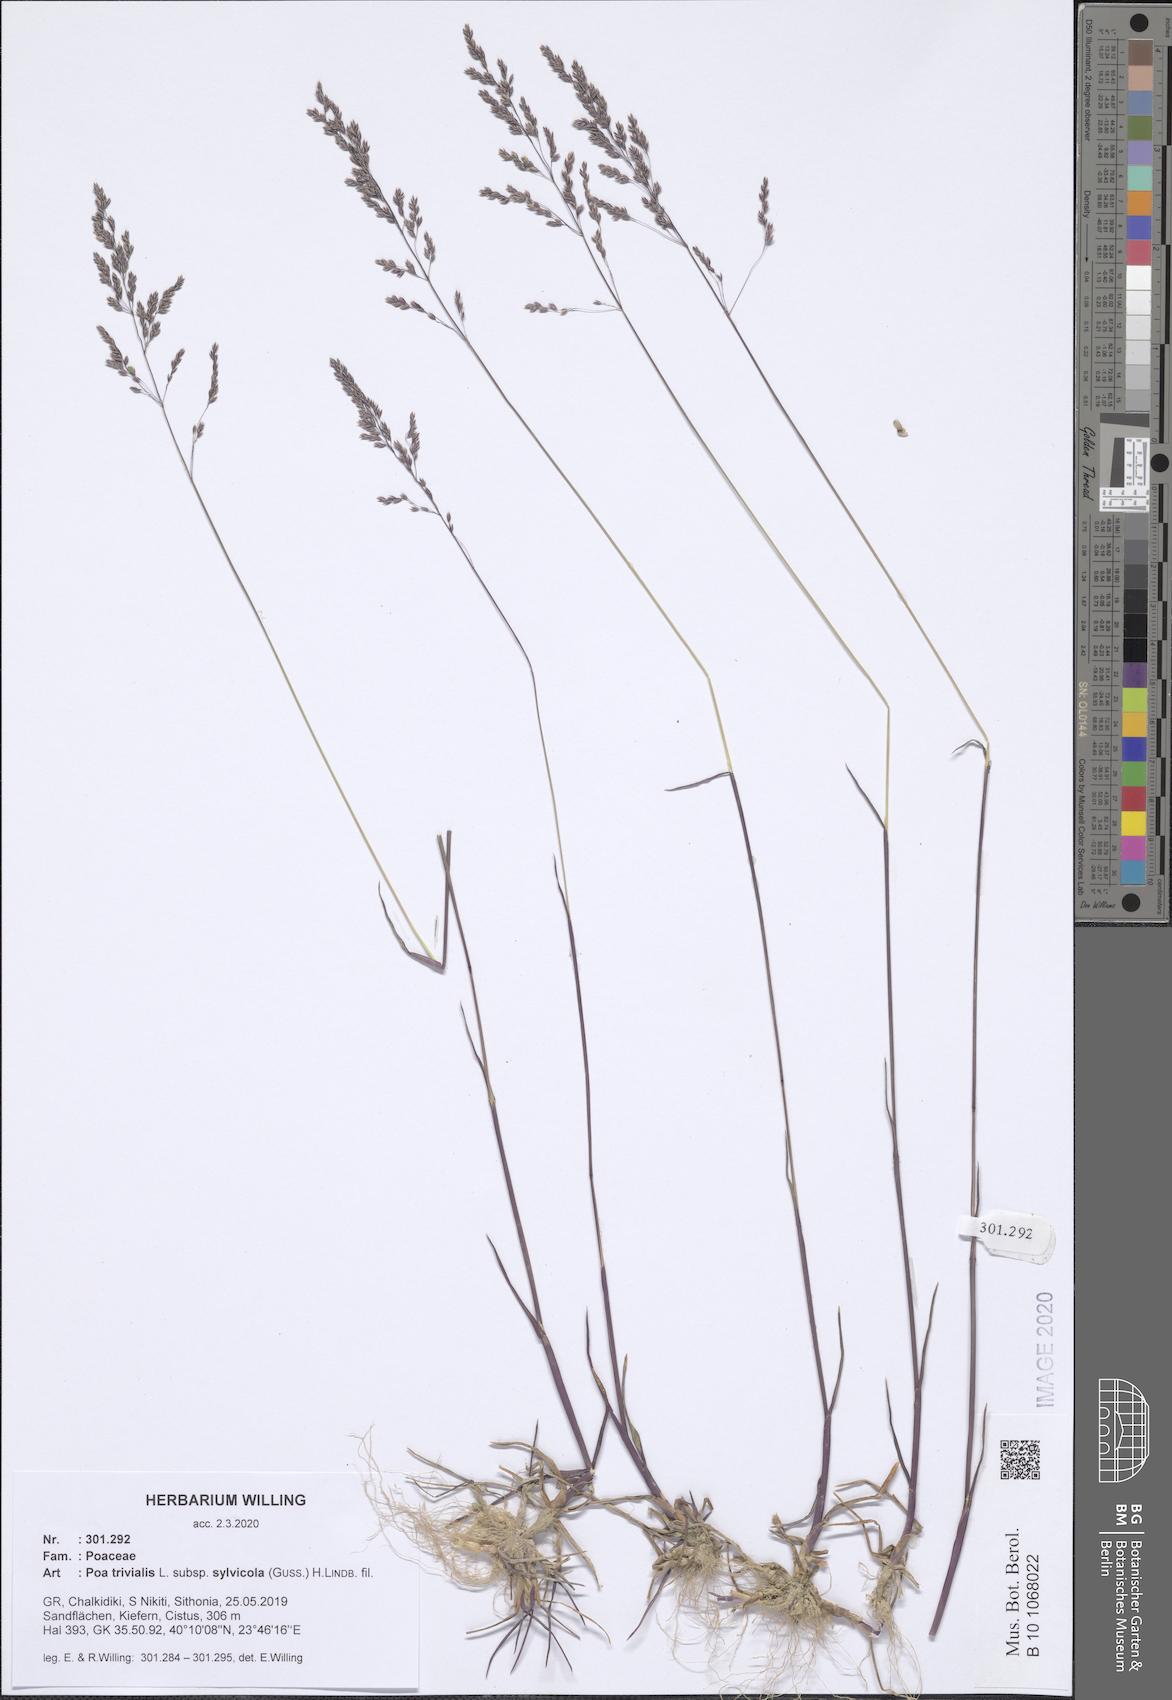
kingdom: Plantae
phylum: Tracheophyta
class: Liliopsida
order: Poales
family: Poaceae
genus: Poa
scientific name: Poa trivialis
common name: Rough bluegrass
